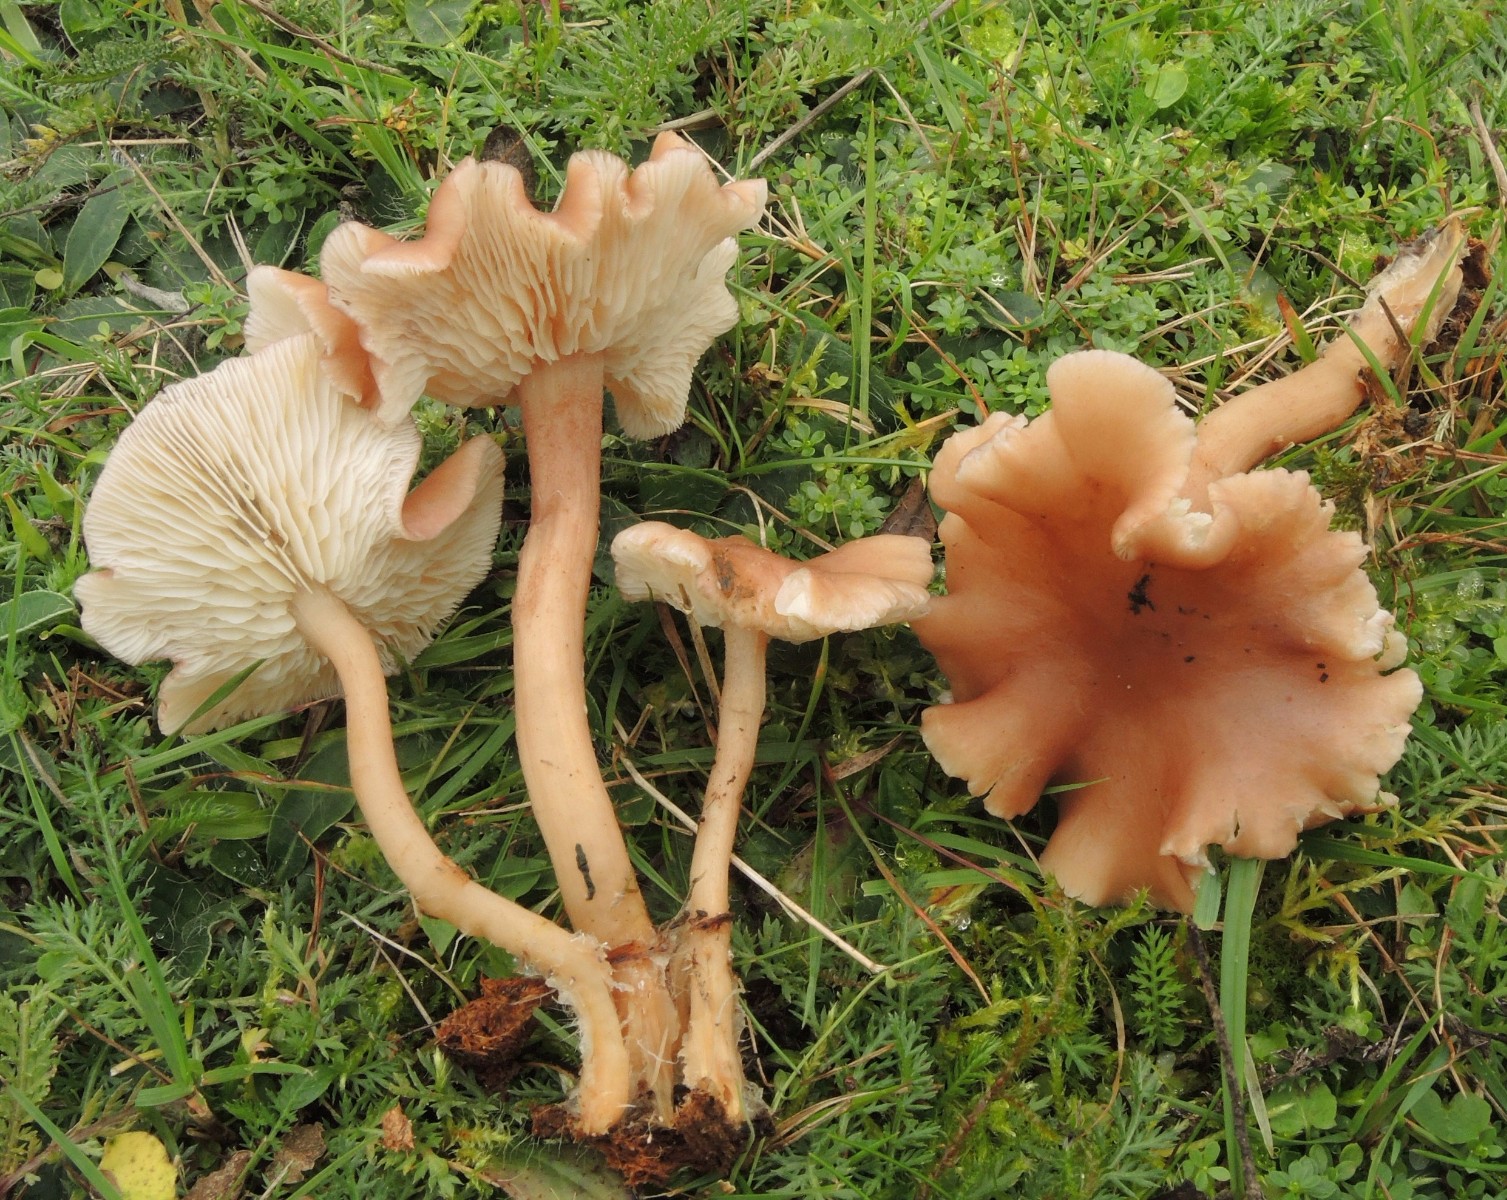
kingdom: Fungi
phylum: Basidiomycota
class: Agaricomycetes
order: Agaricales
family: Lyophyllaceae
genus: Calocybe
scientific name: Calocybe carnea
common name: rosa fagerhat
